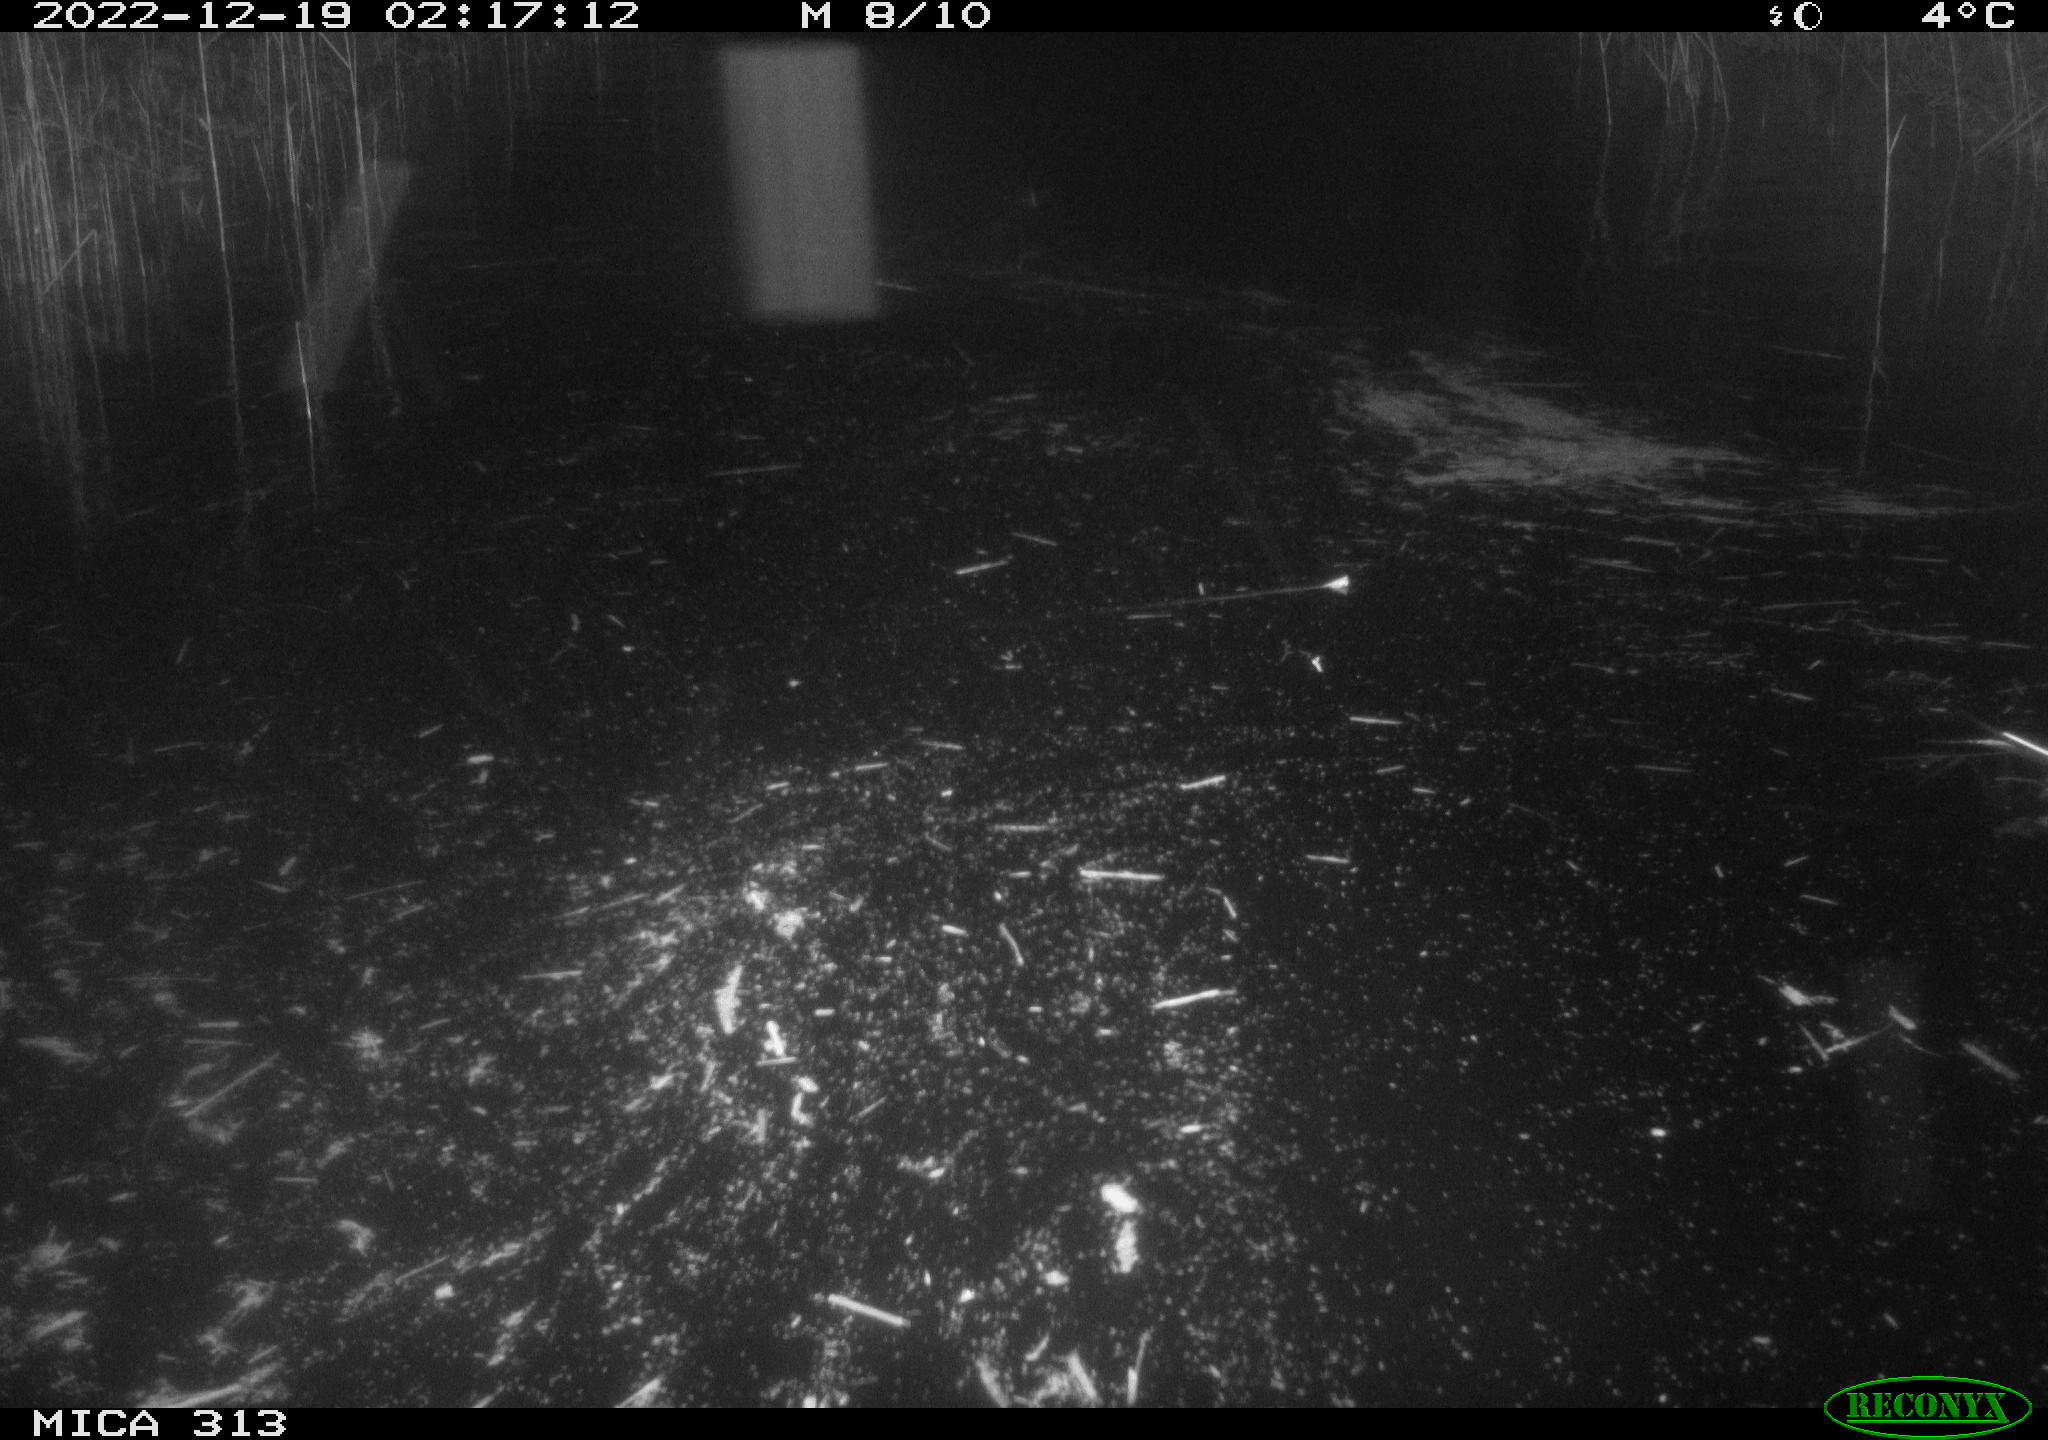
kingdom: Animalia
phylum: Chordata
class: Aves
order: Gruiformes
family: Rallidae
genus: Gallinula
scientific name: Gallinula chloropus
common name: Common moorhen
